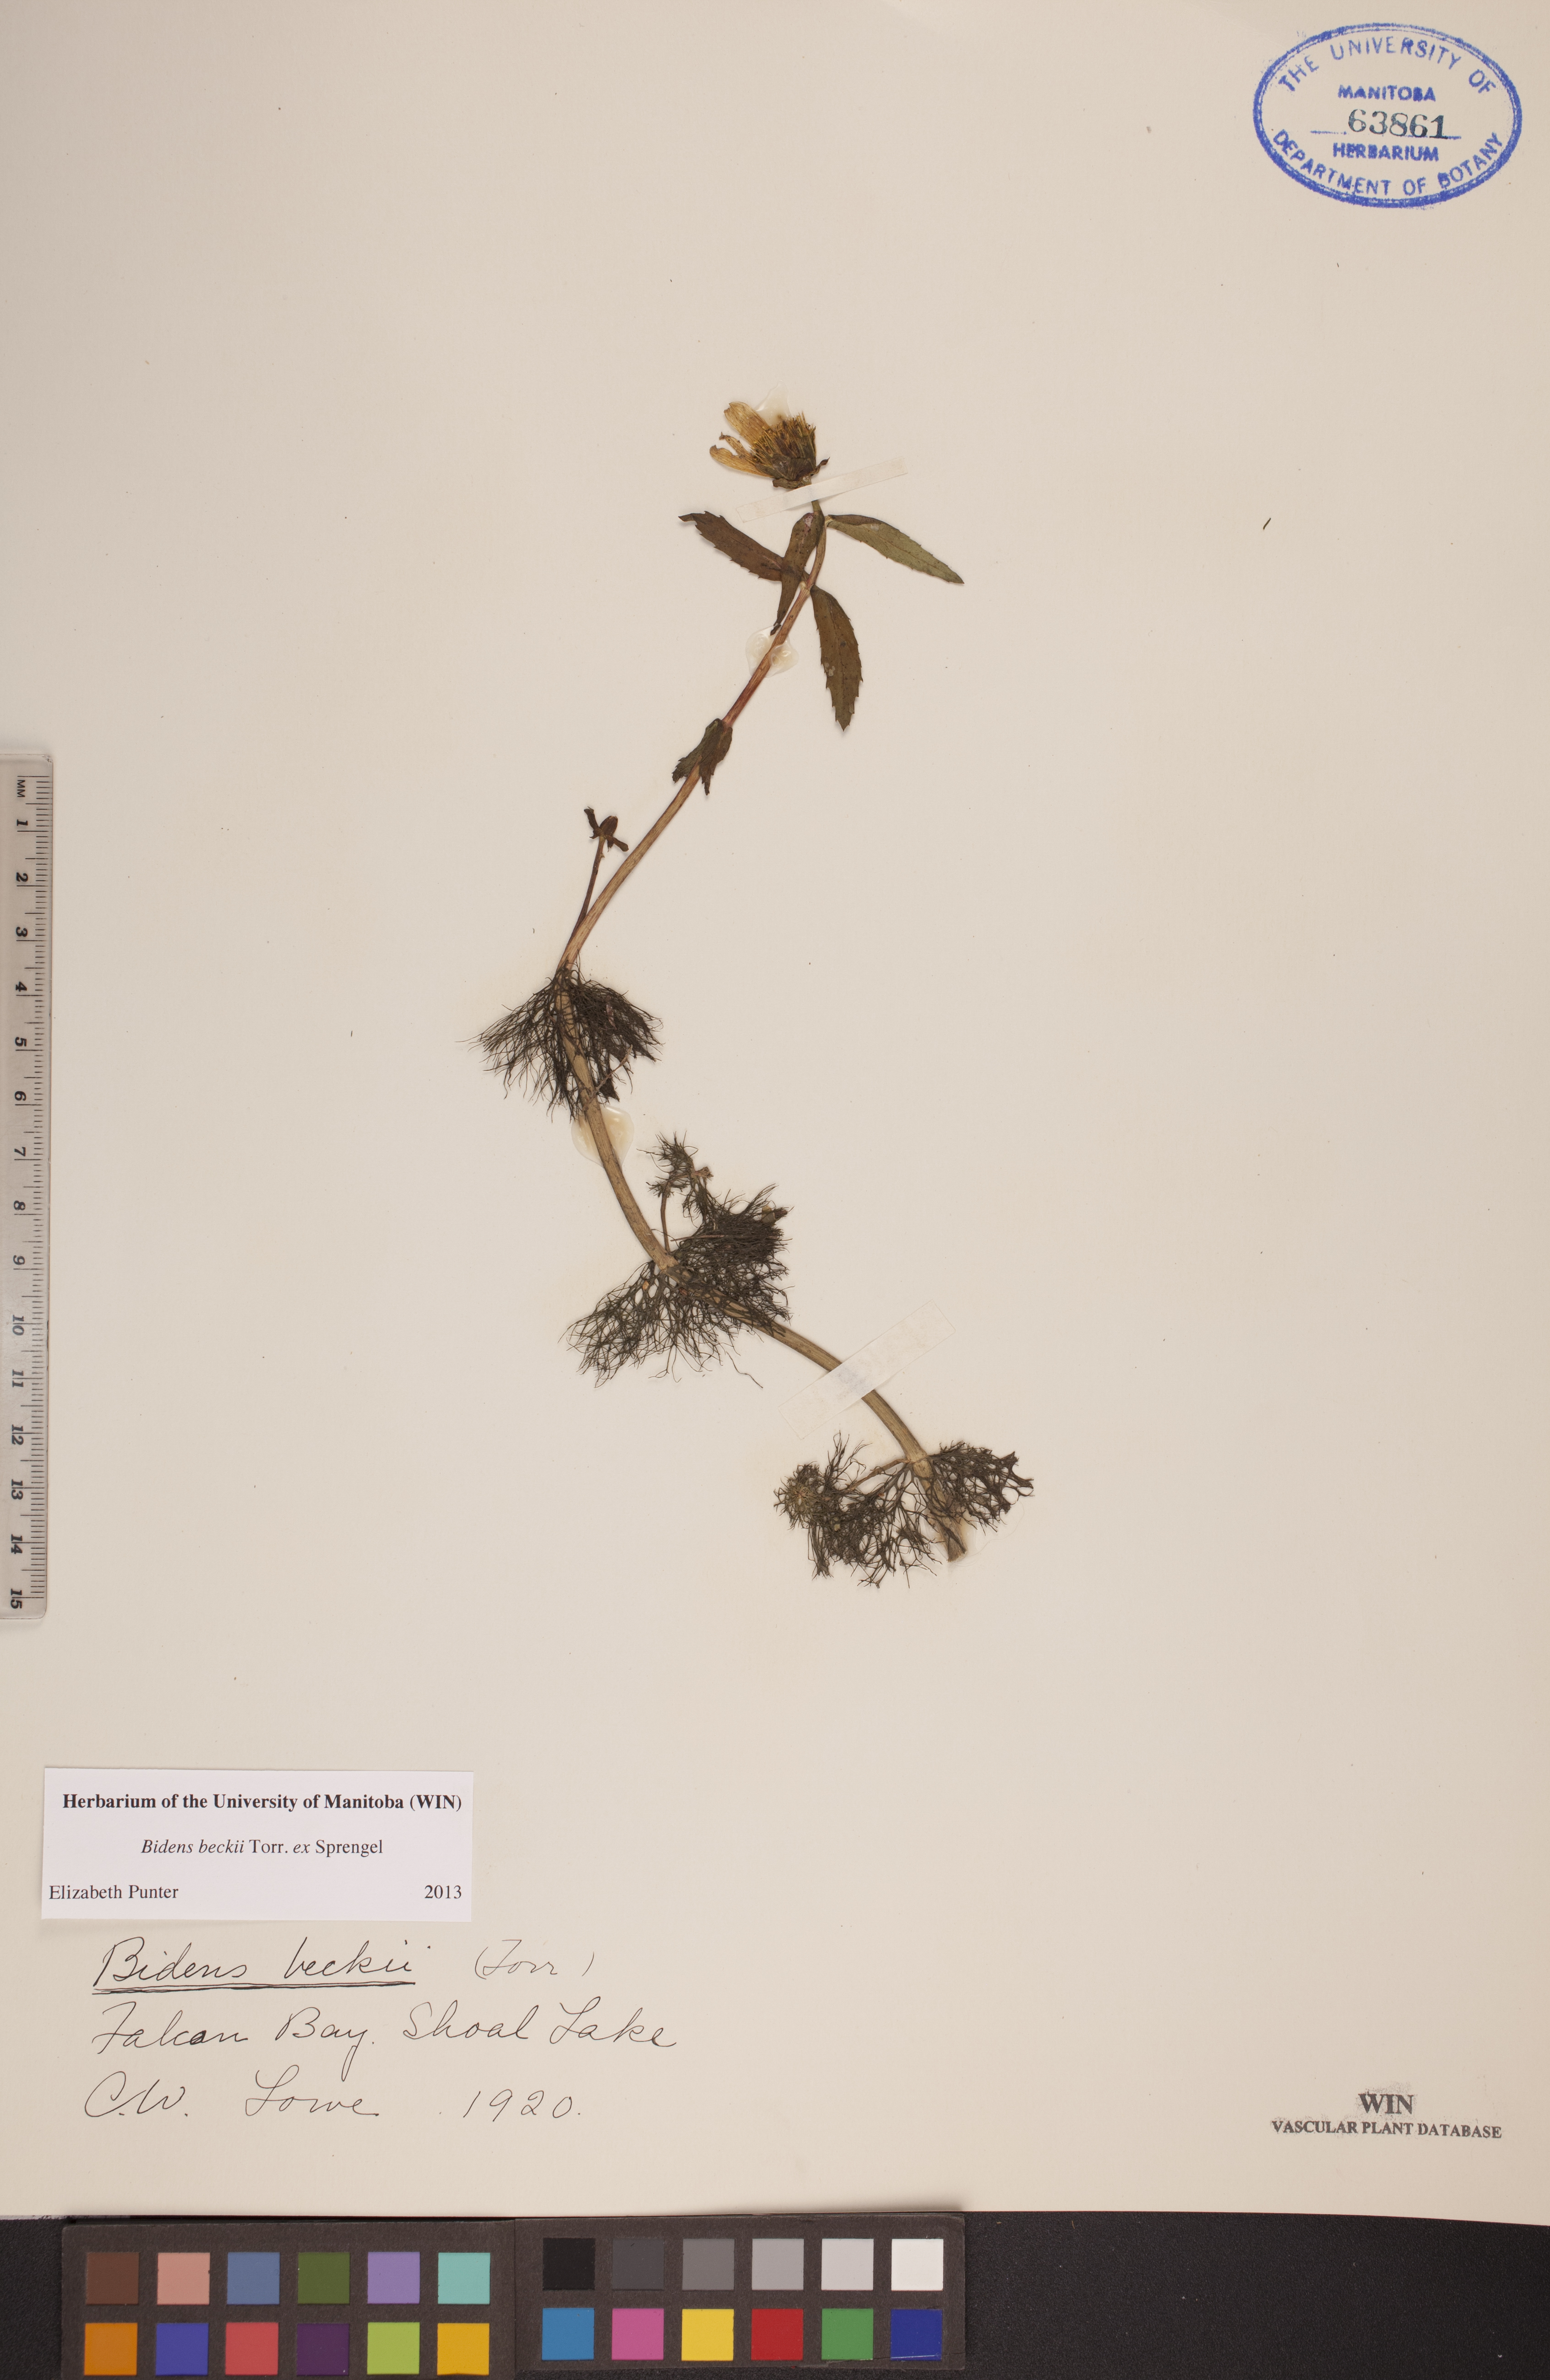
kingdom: Plantae
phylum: Tracheophyta
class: Magnoliopsida
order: Asterales
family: Asteraceae
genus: Bidens
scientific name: Bidens beckii
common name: Beck's beggarticks
